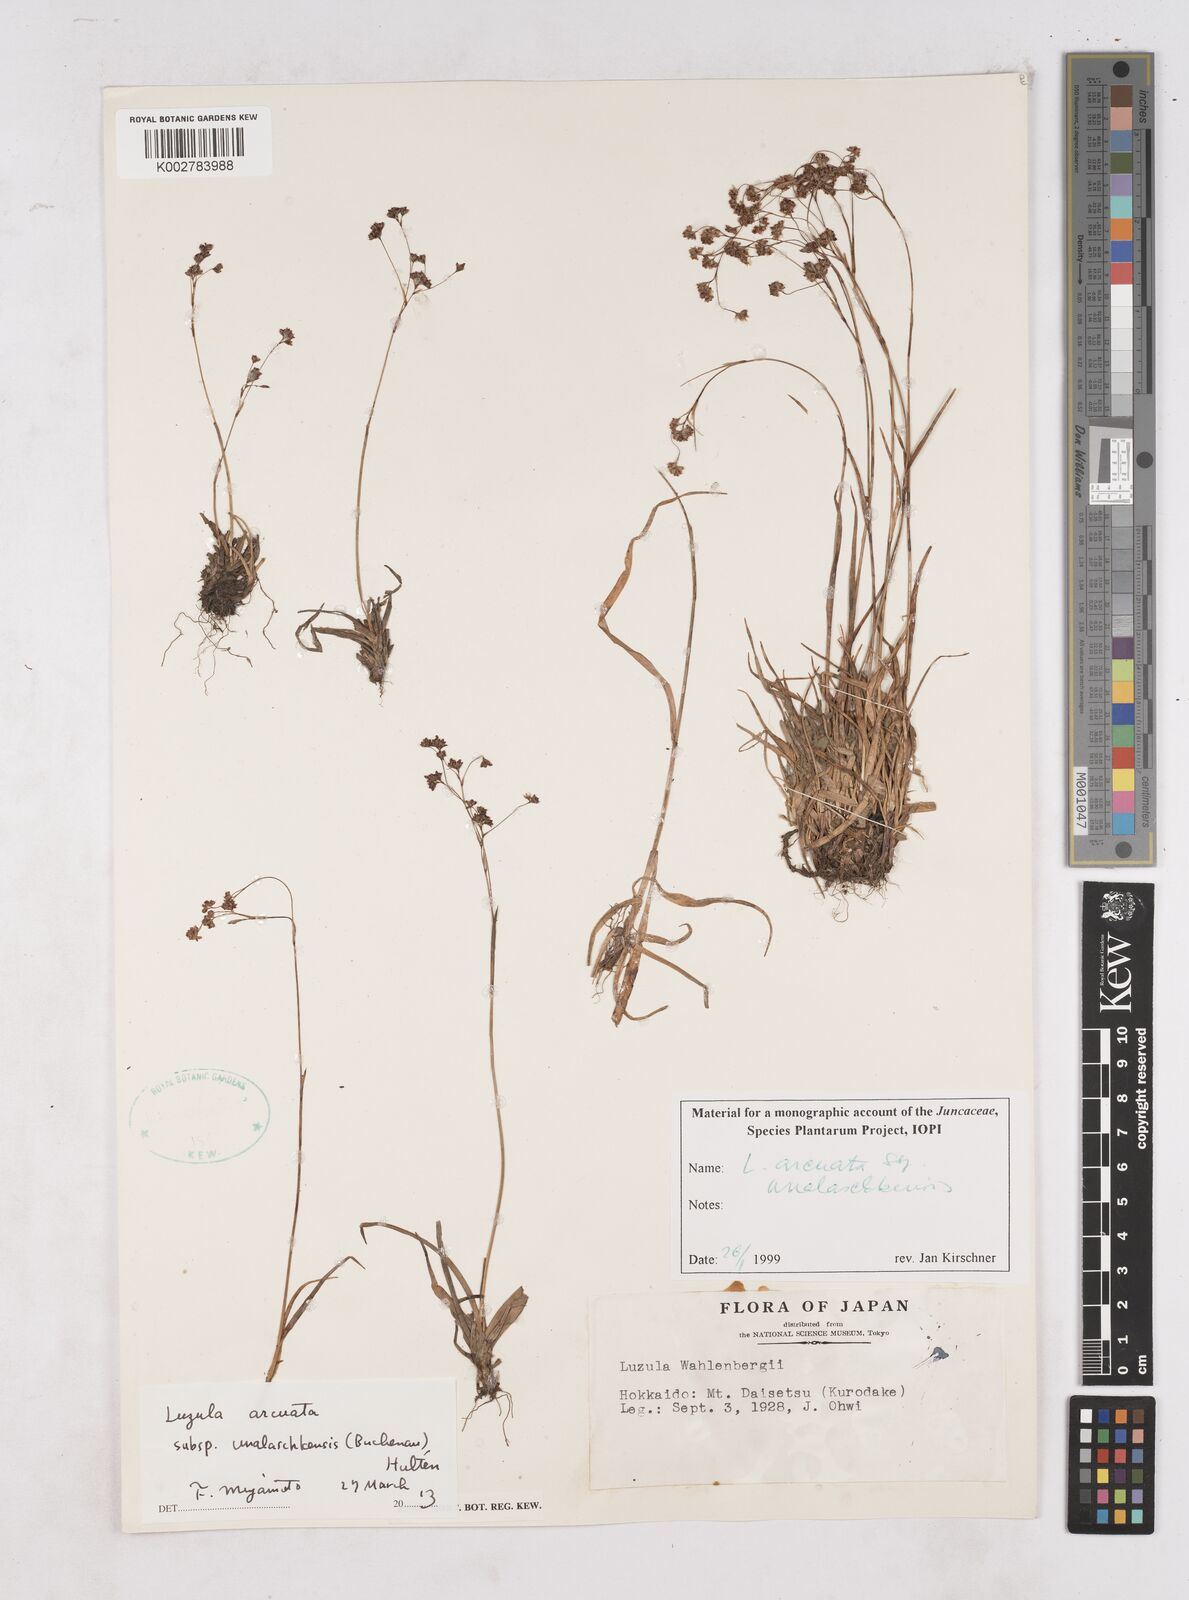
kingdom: Plantae
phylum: Tracheophyta
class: Liliopsida
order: Poales
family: Juncaceae
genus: Luzula
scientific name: Luzula arcuata
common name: Curved wood-rush
